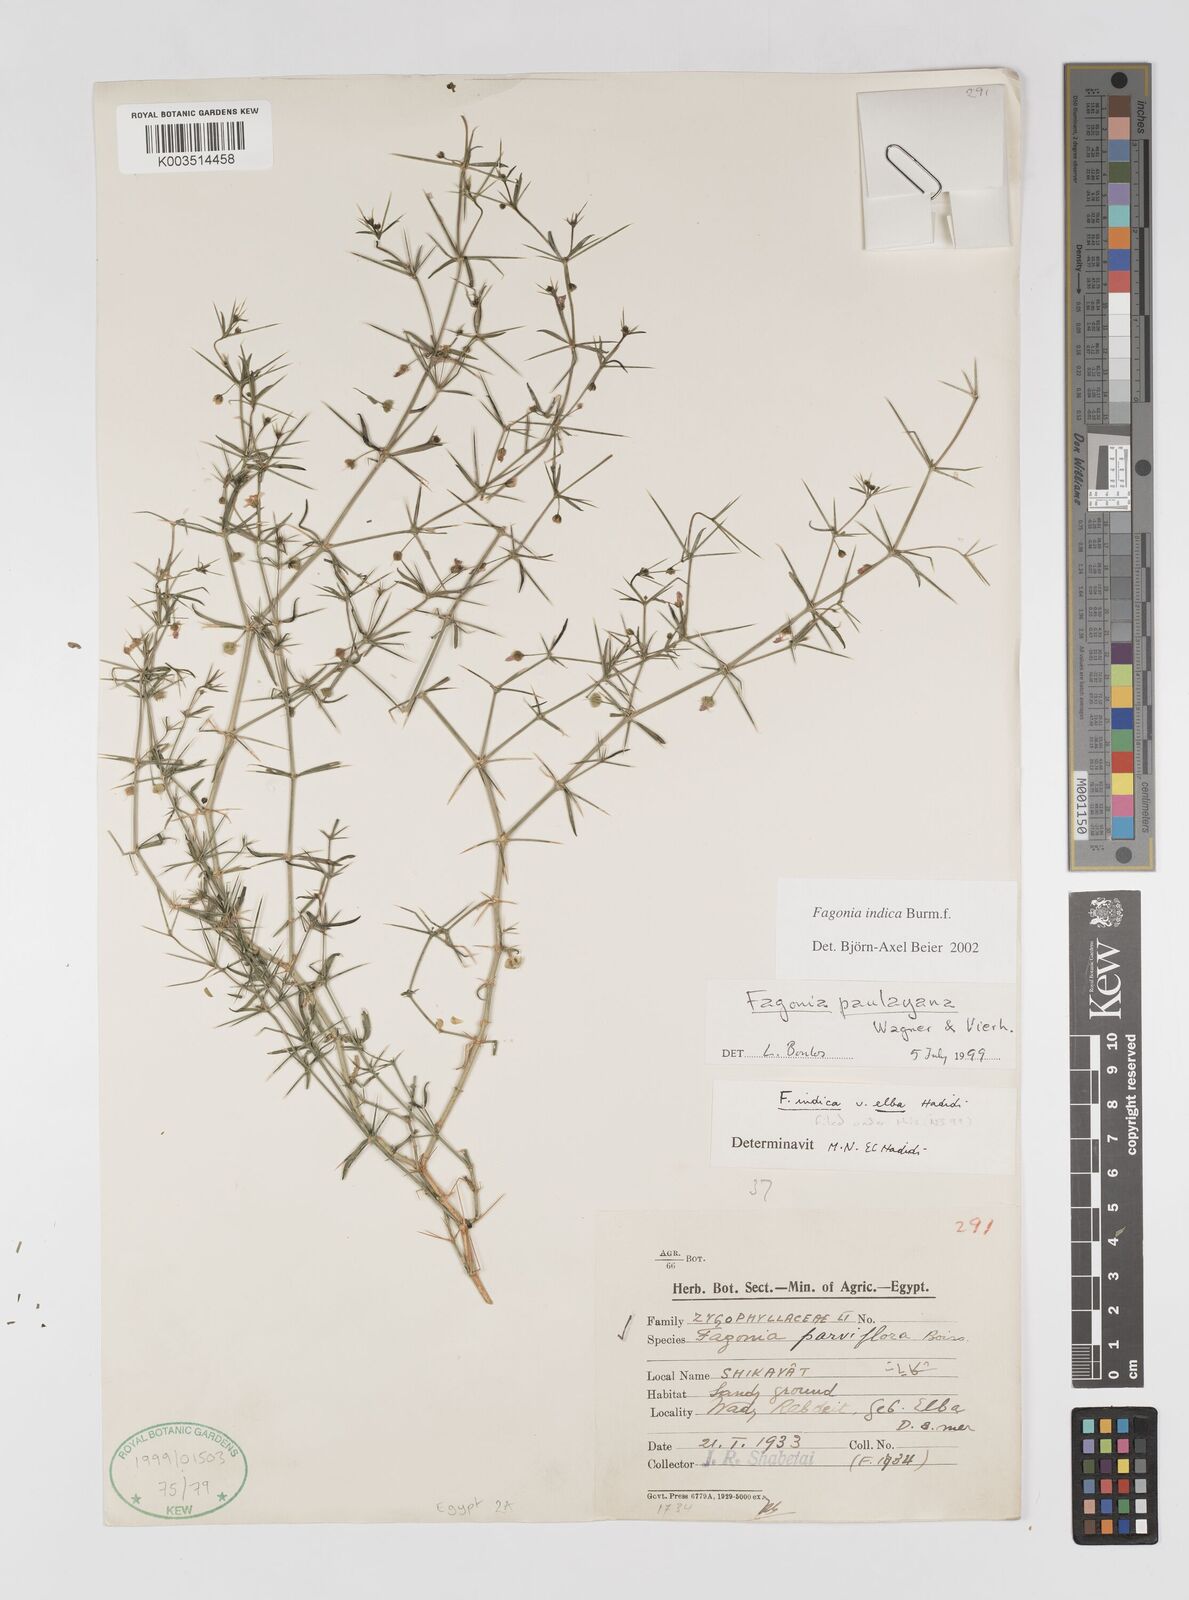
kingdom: Plantae
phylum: Tracheophyta
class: Magnoliopsida
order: Zygophyllales
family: Zygophyllaceae
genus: Fagonia
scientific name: Fagonia indica
